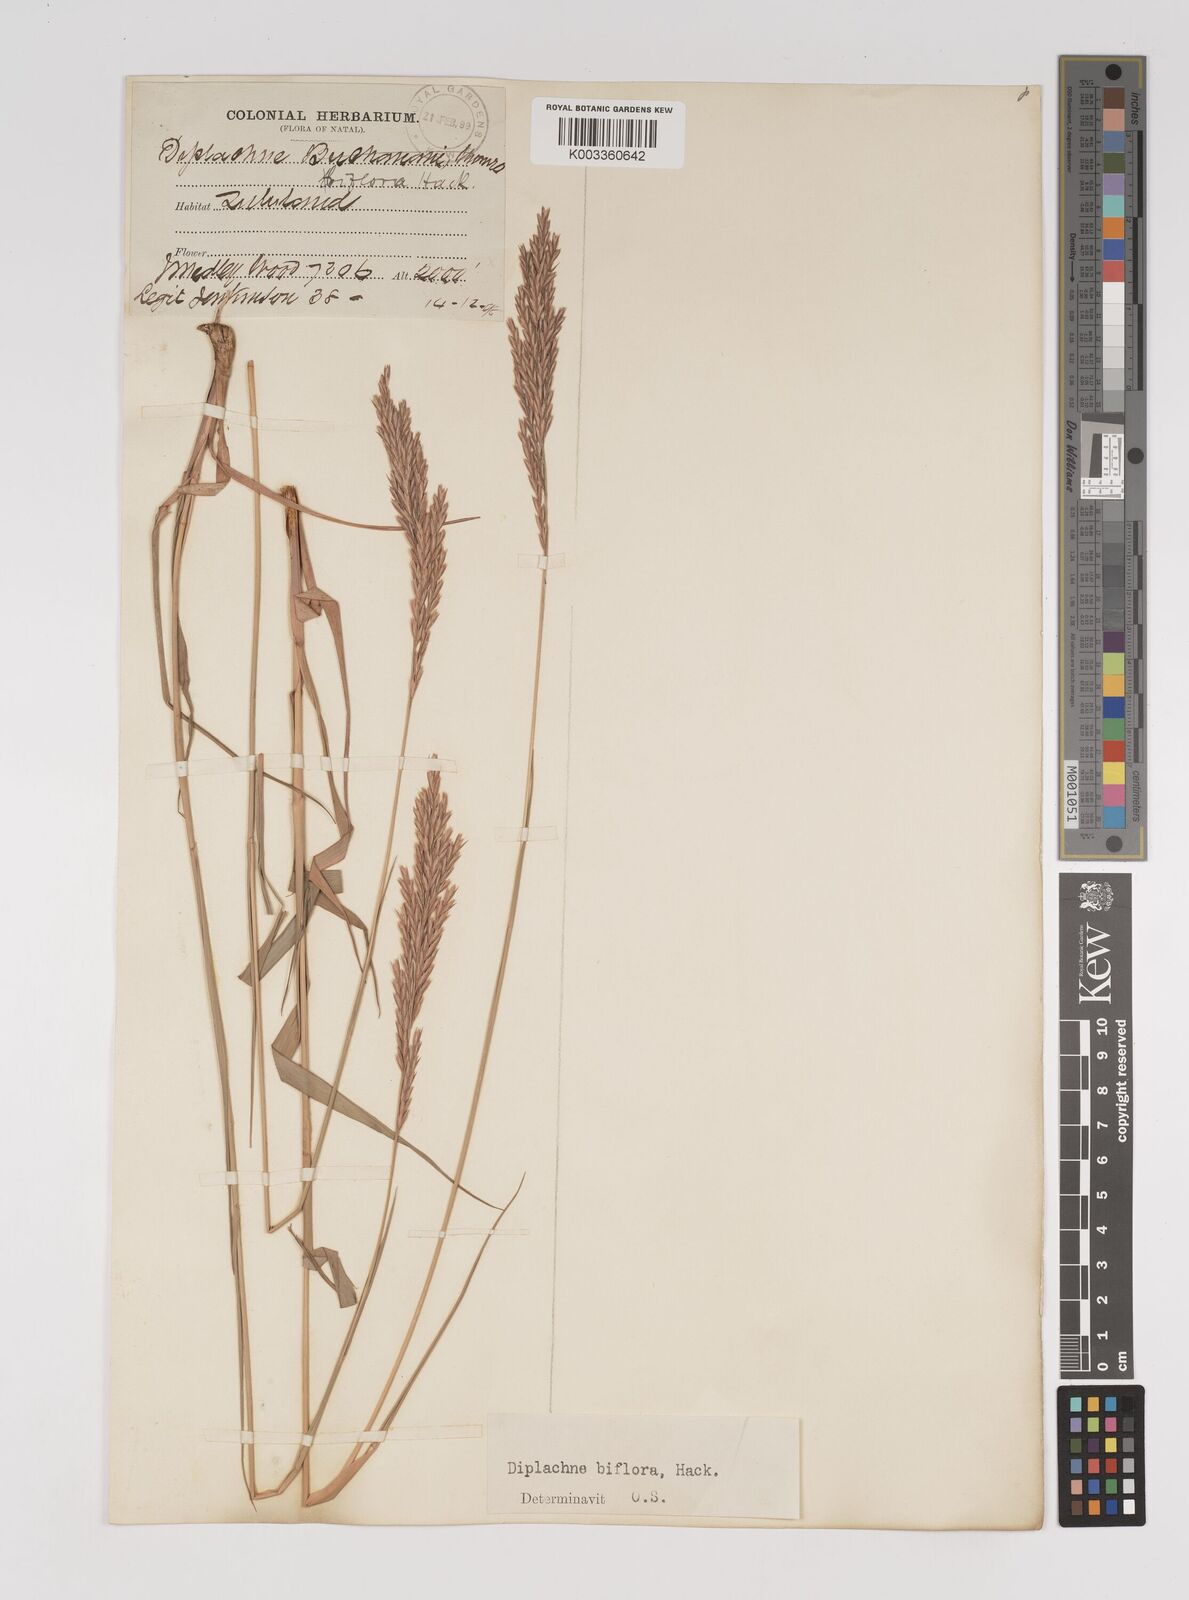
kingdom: Plantae
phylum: Tracheophyta
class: Liliopsida
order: Poales
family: Poaceae
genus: Bewsia
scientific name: Bewsia biflora
